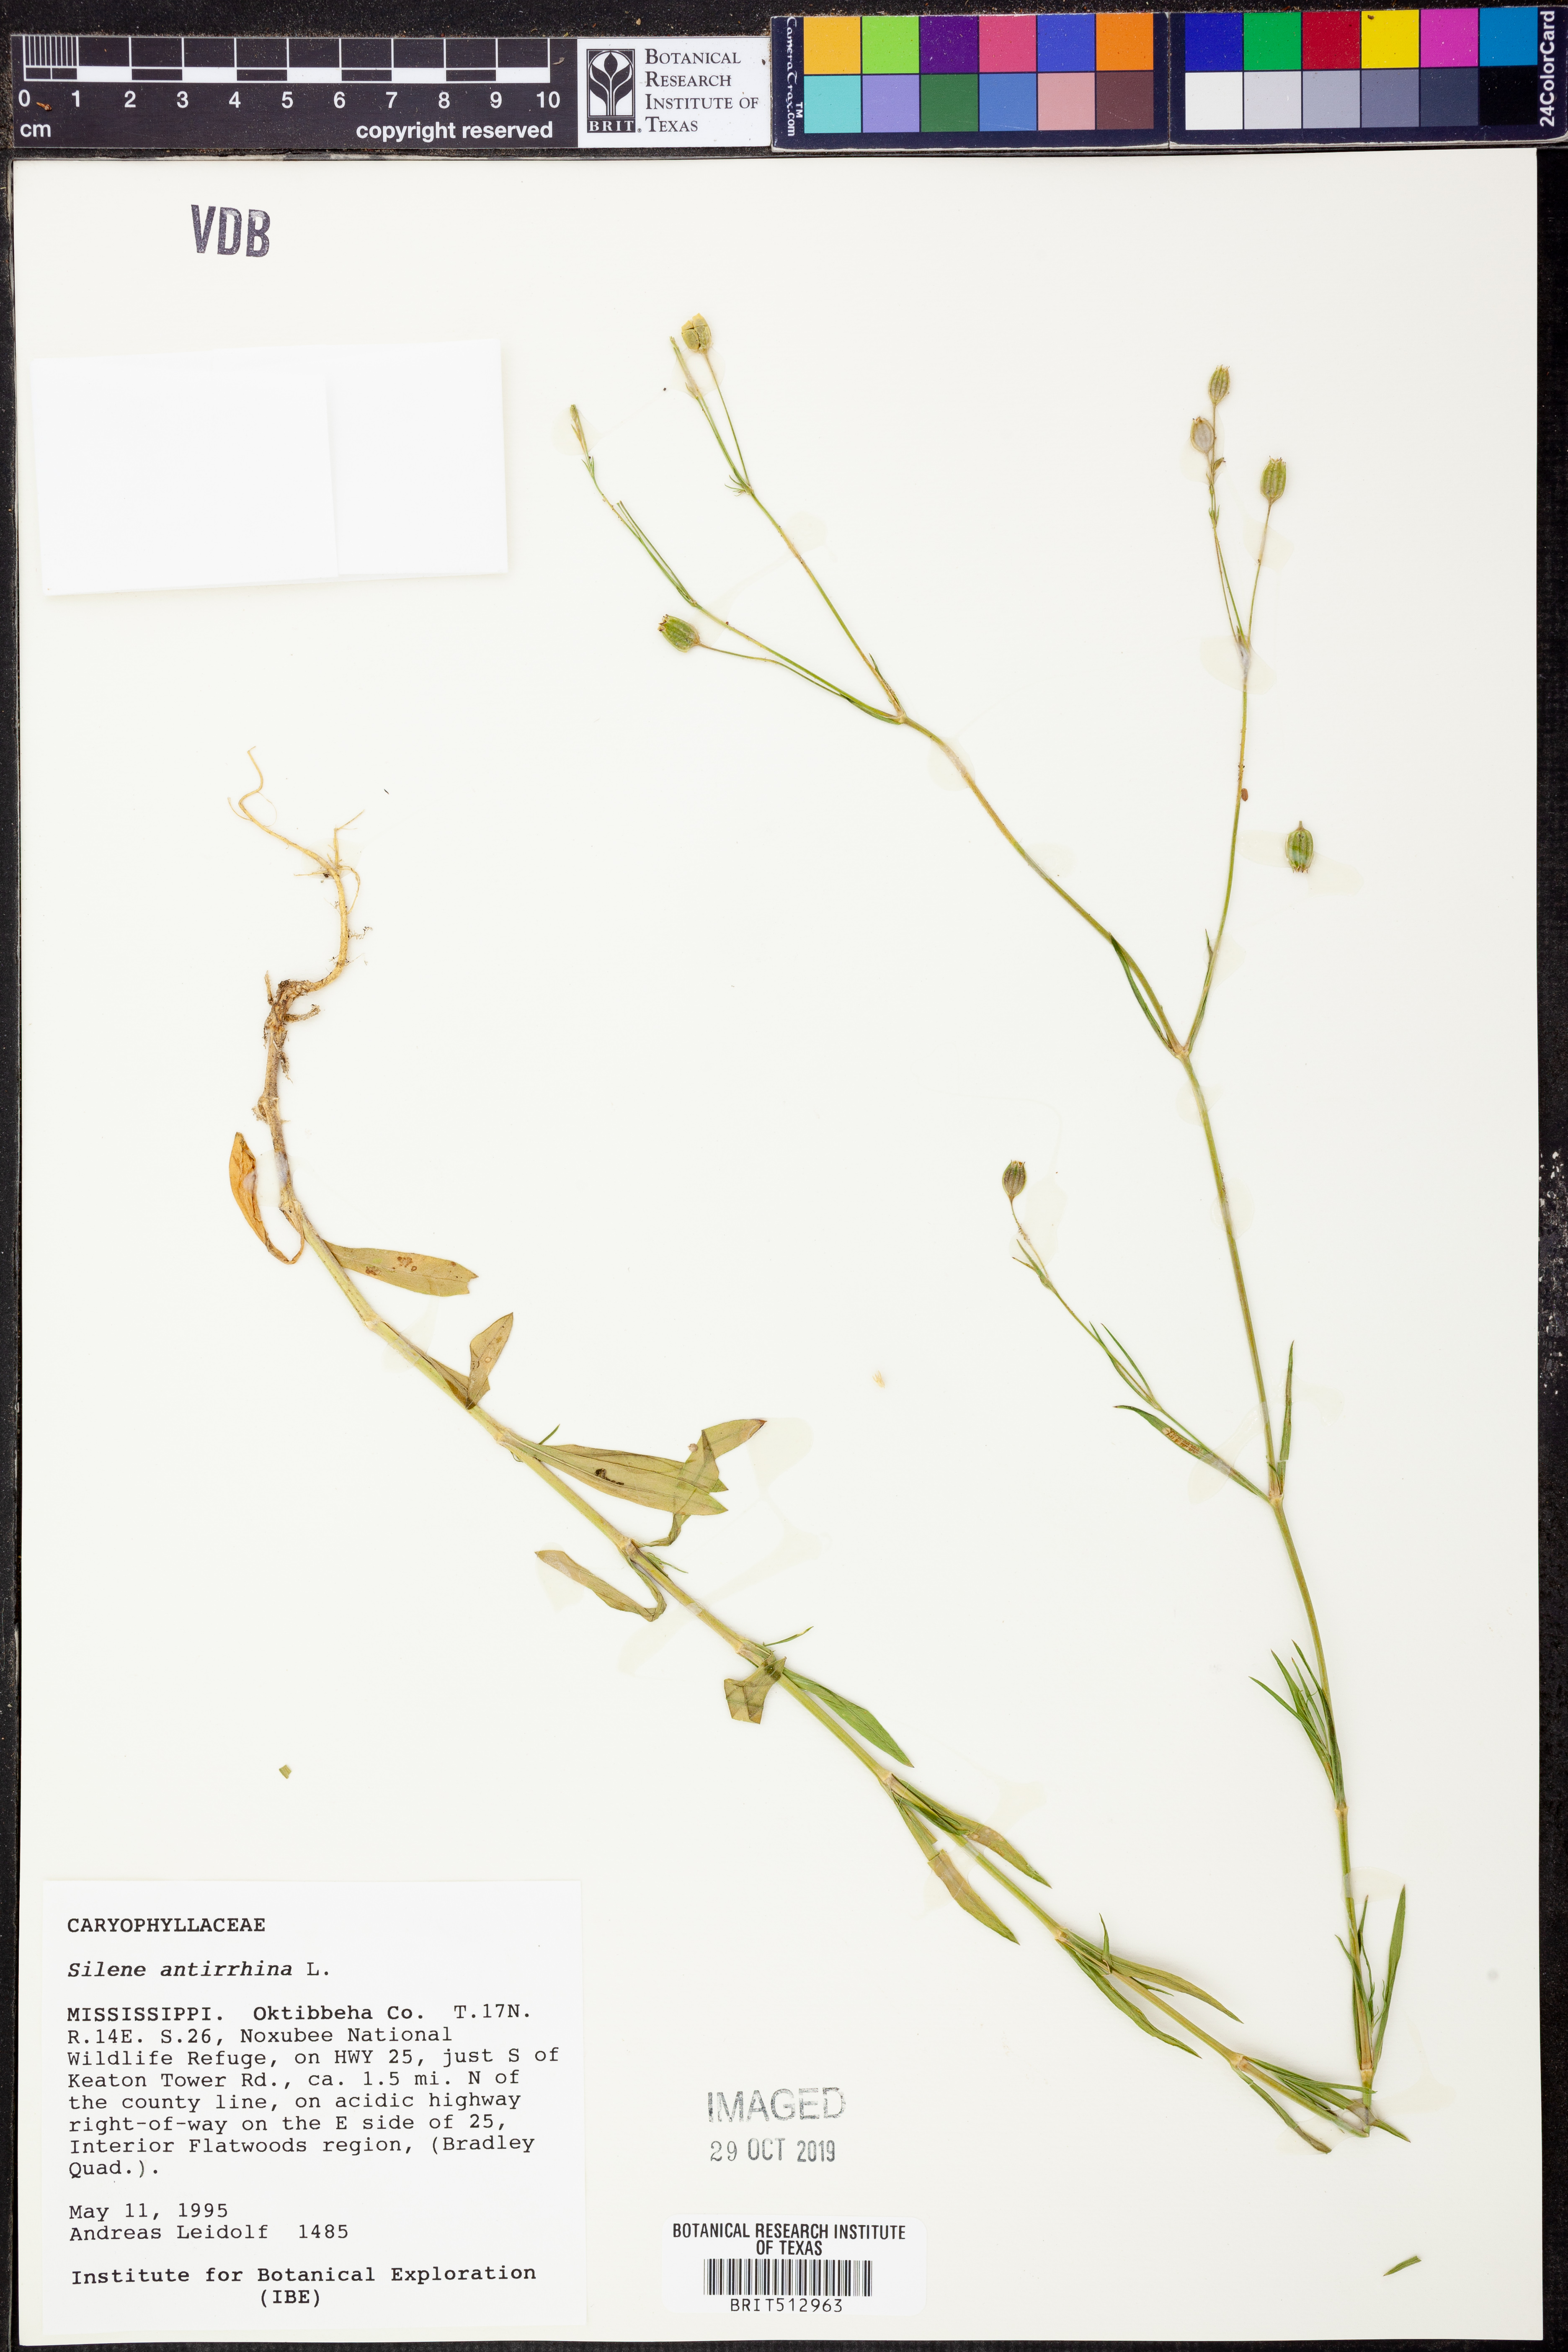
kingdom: Plantae
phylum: Tracheophyta
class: Magnoliopsida
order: Caryophyllales
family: Caryophyllaceae
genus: Silene
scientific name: Silene antirrhina
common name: Sleepy catchfly
